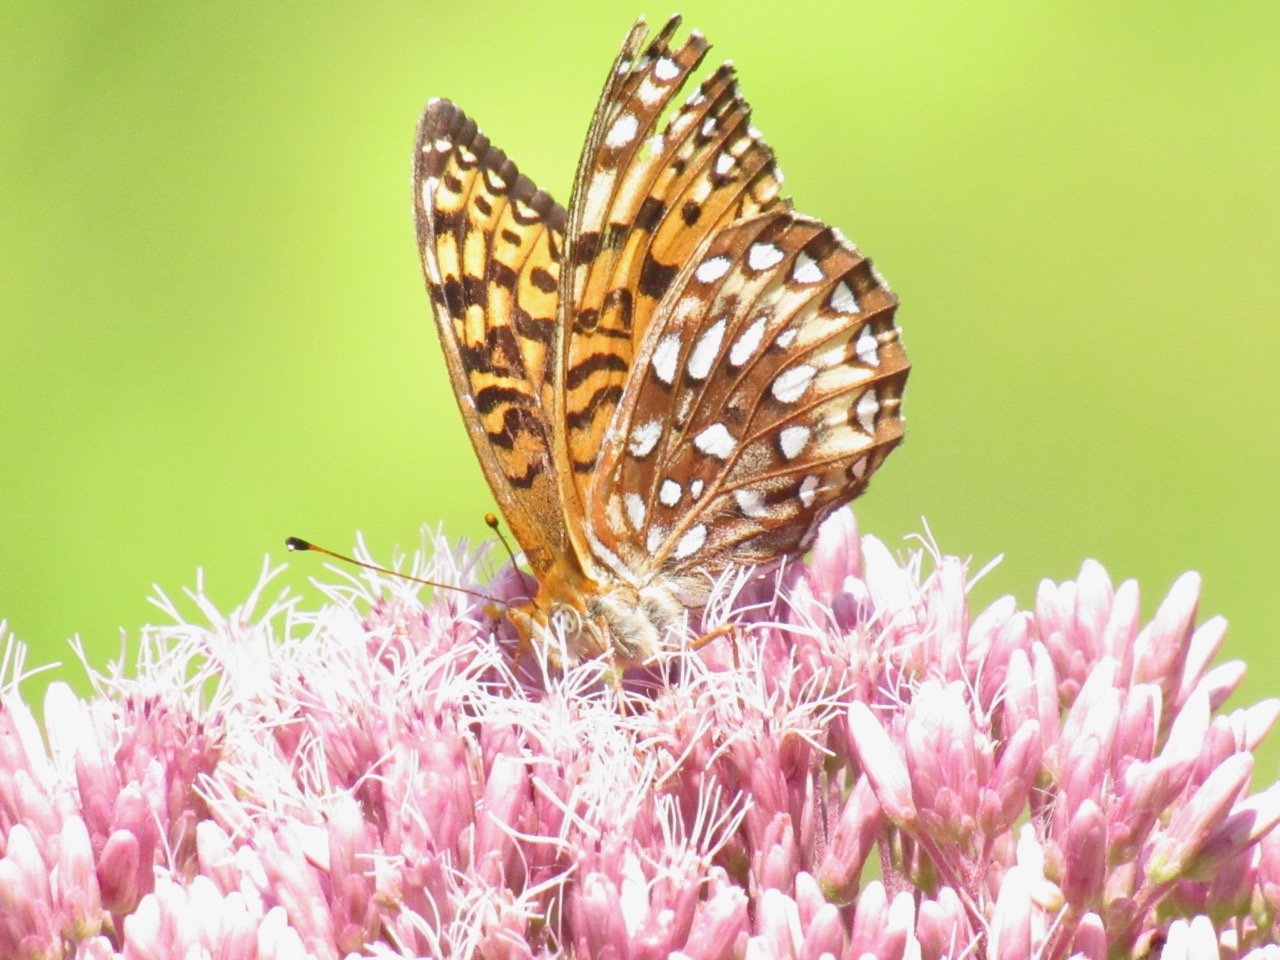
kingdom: Animalia
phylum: Arthropoda
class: Insecta
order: Lepidoptera
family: Nymphalidae
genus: Speyeria
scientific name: Speyeria atlantis
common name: Atlantis Fritillary
